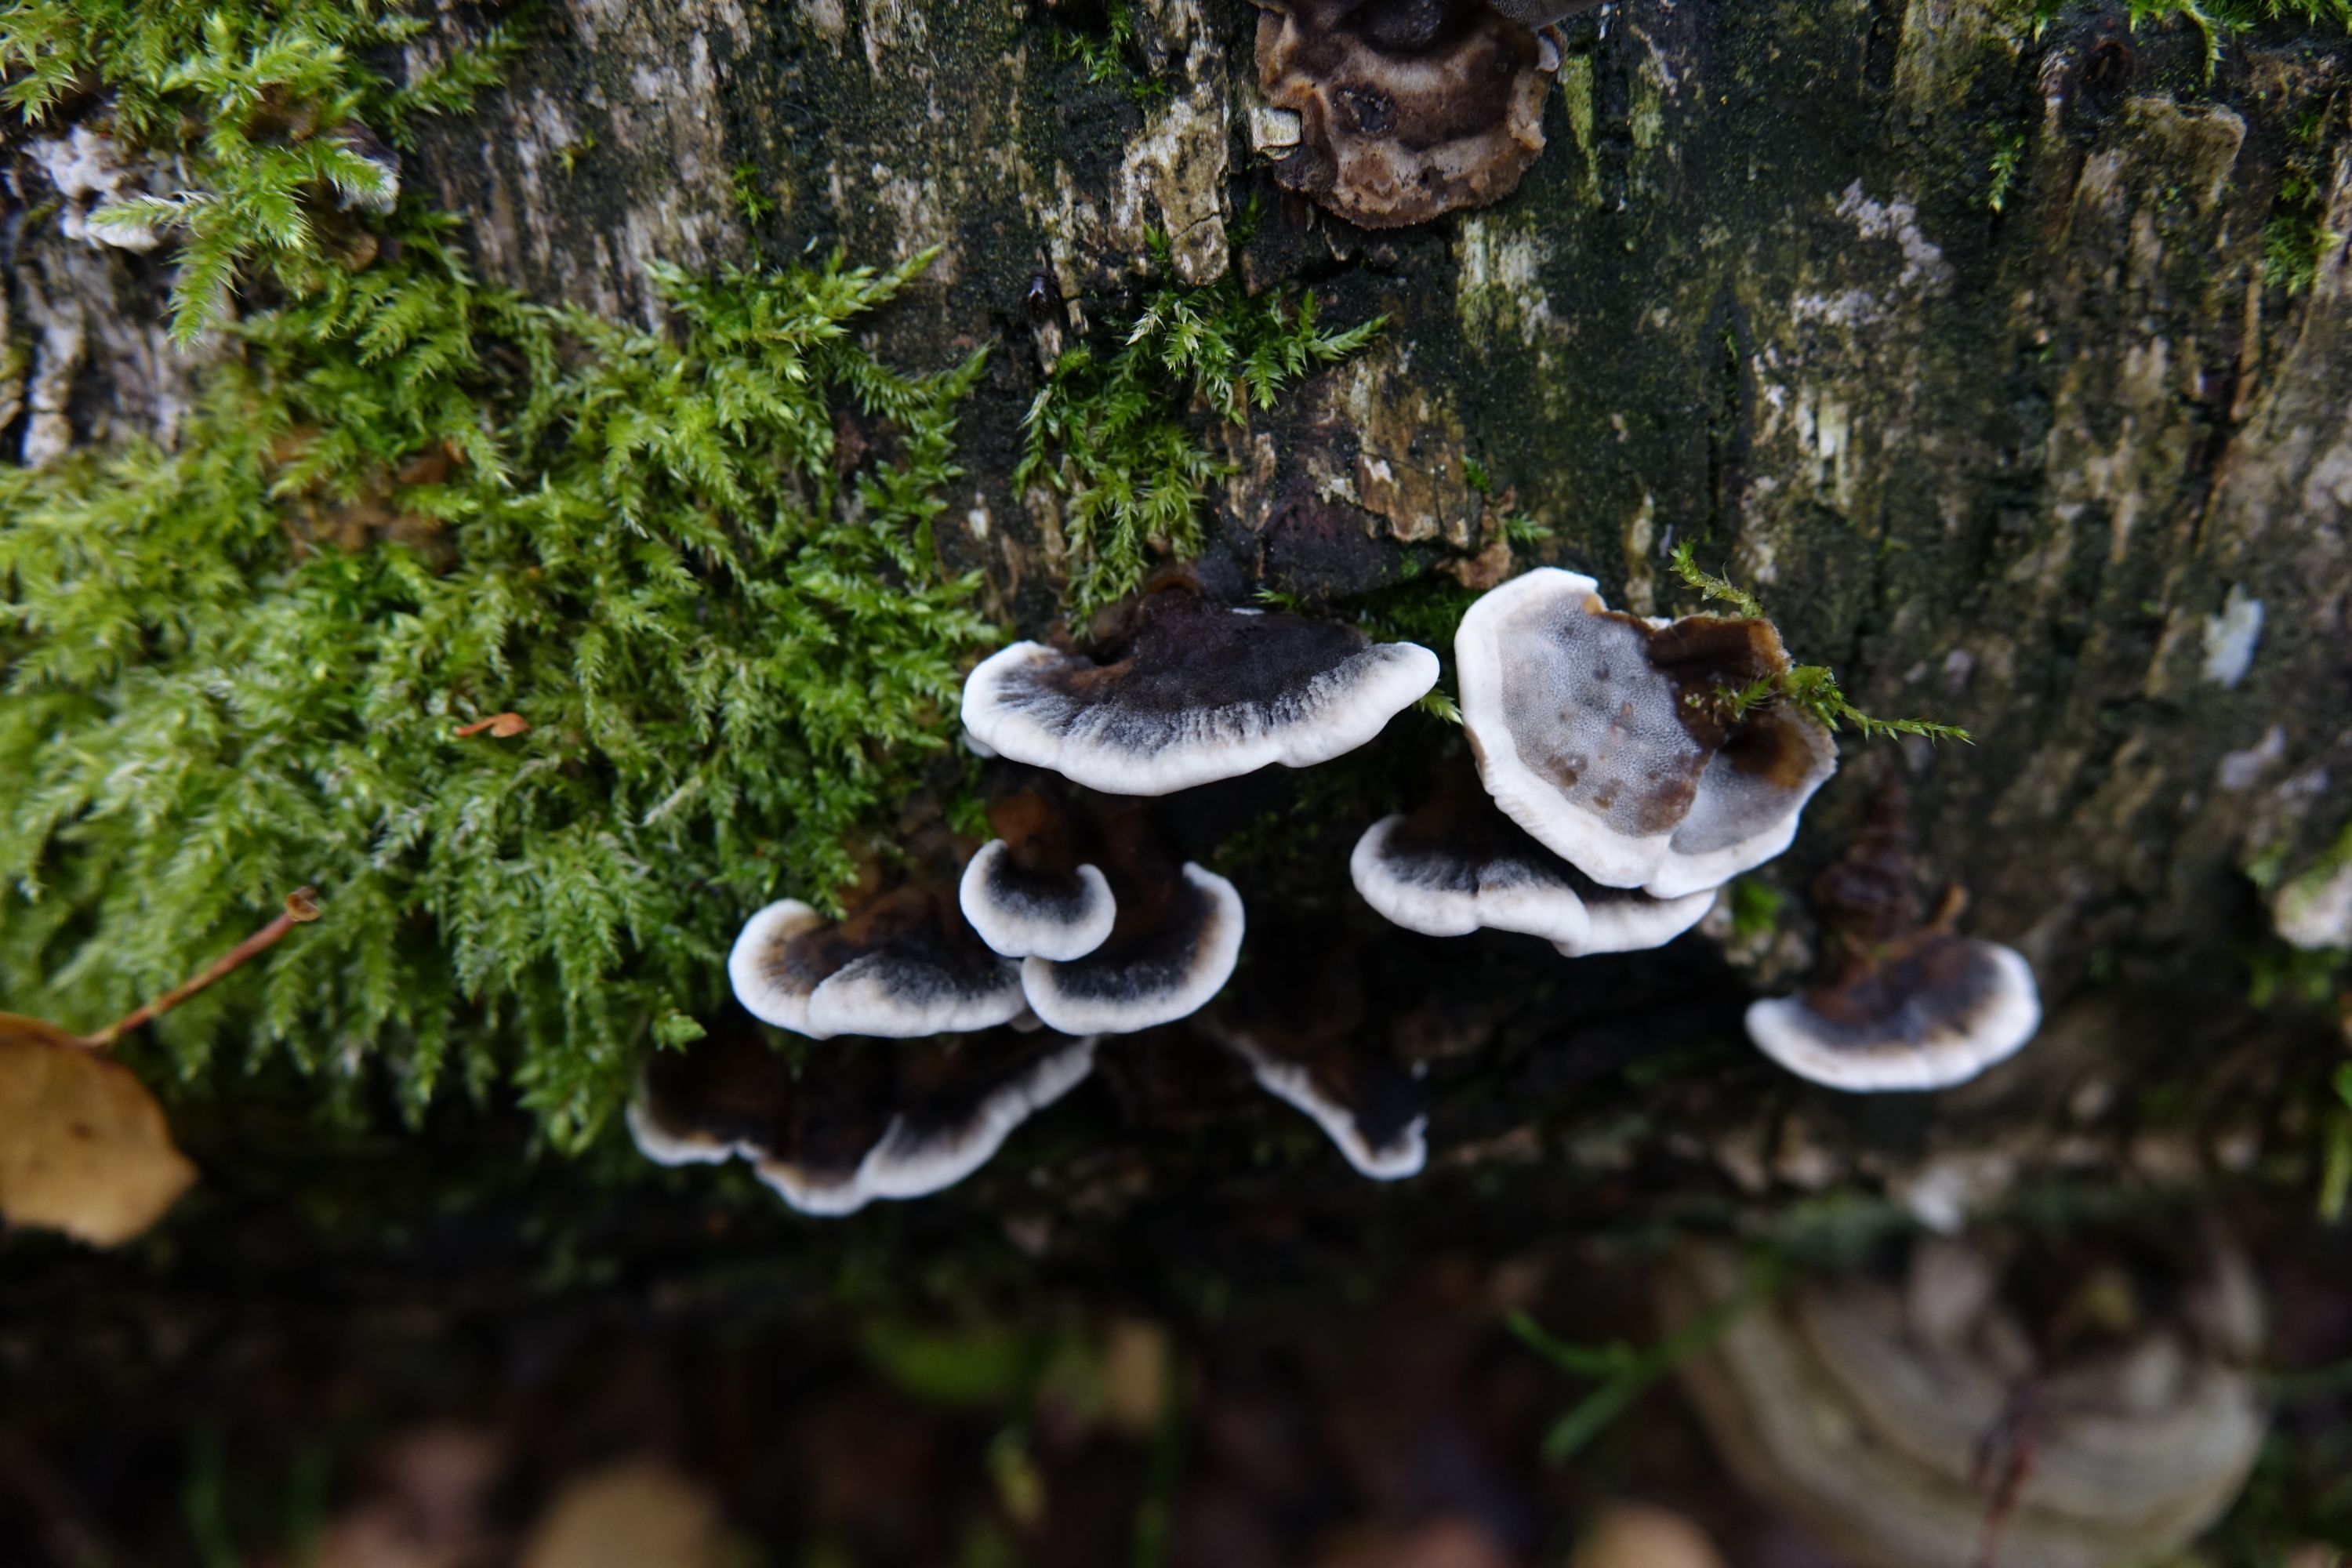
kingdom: Fungi
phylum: Basidiomycota
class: Agaricomycetes
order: Polyporales
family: Phanerochaetaceae
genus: Bjerkandera
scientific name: Bjerkandera adusta
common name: Smoky bracket
